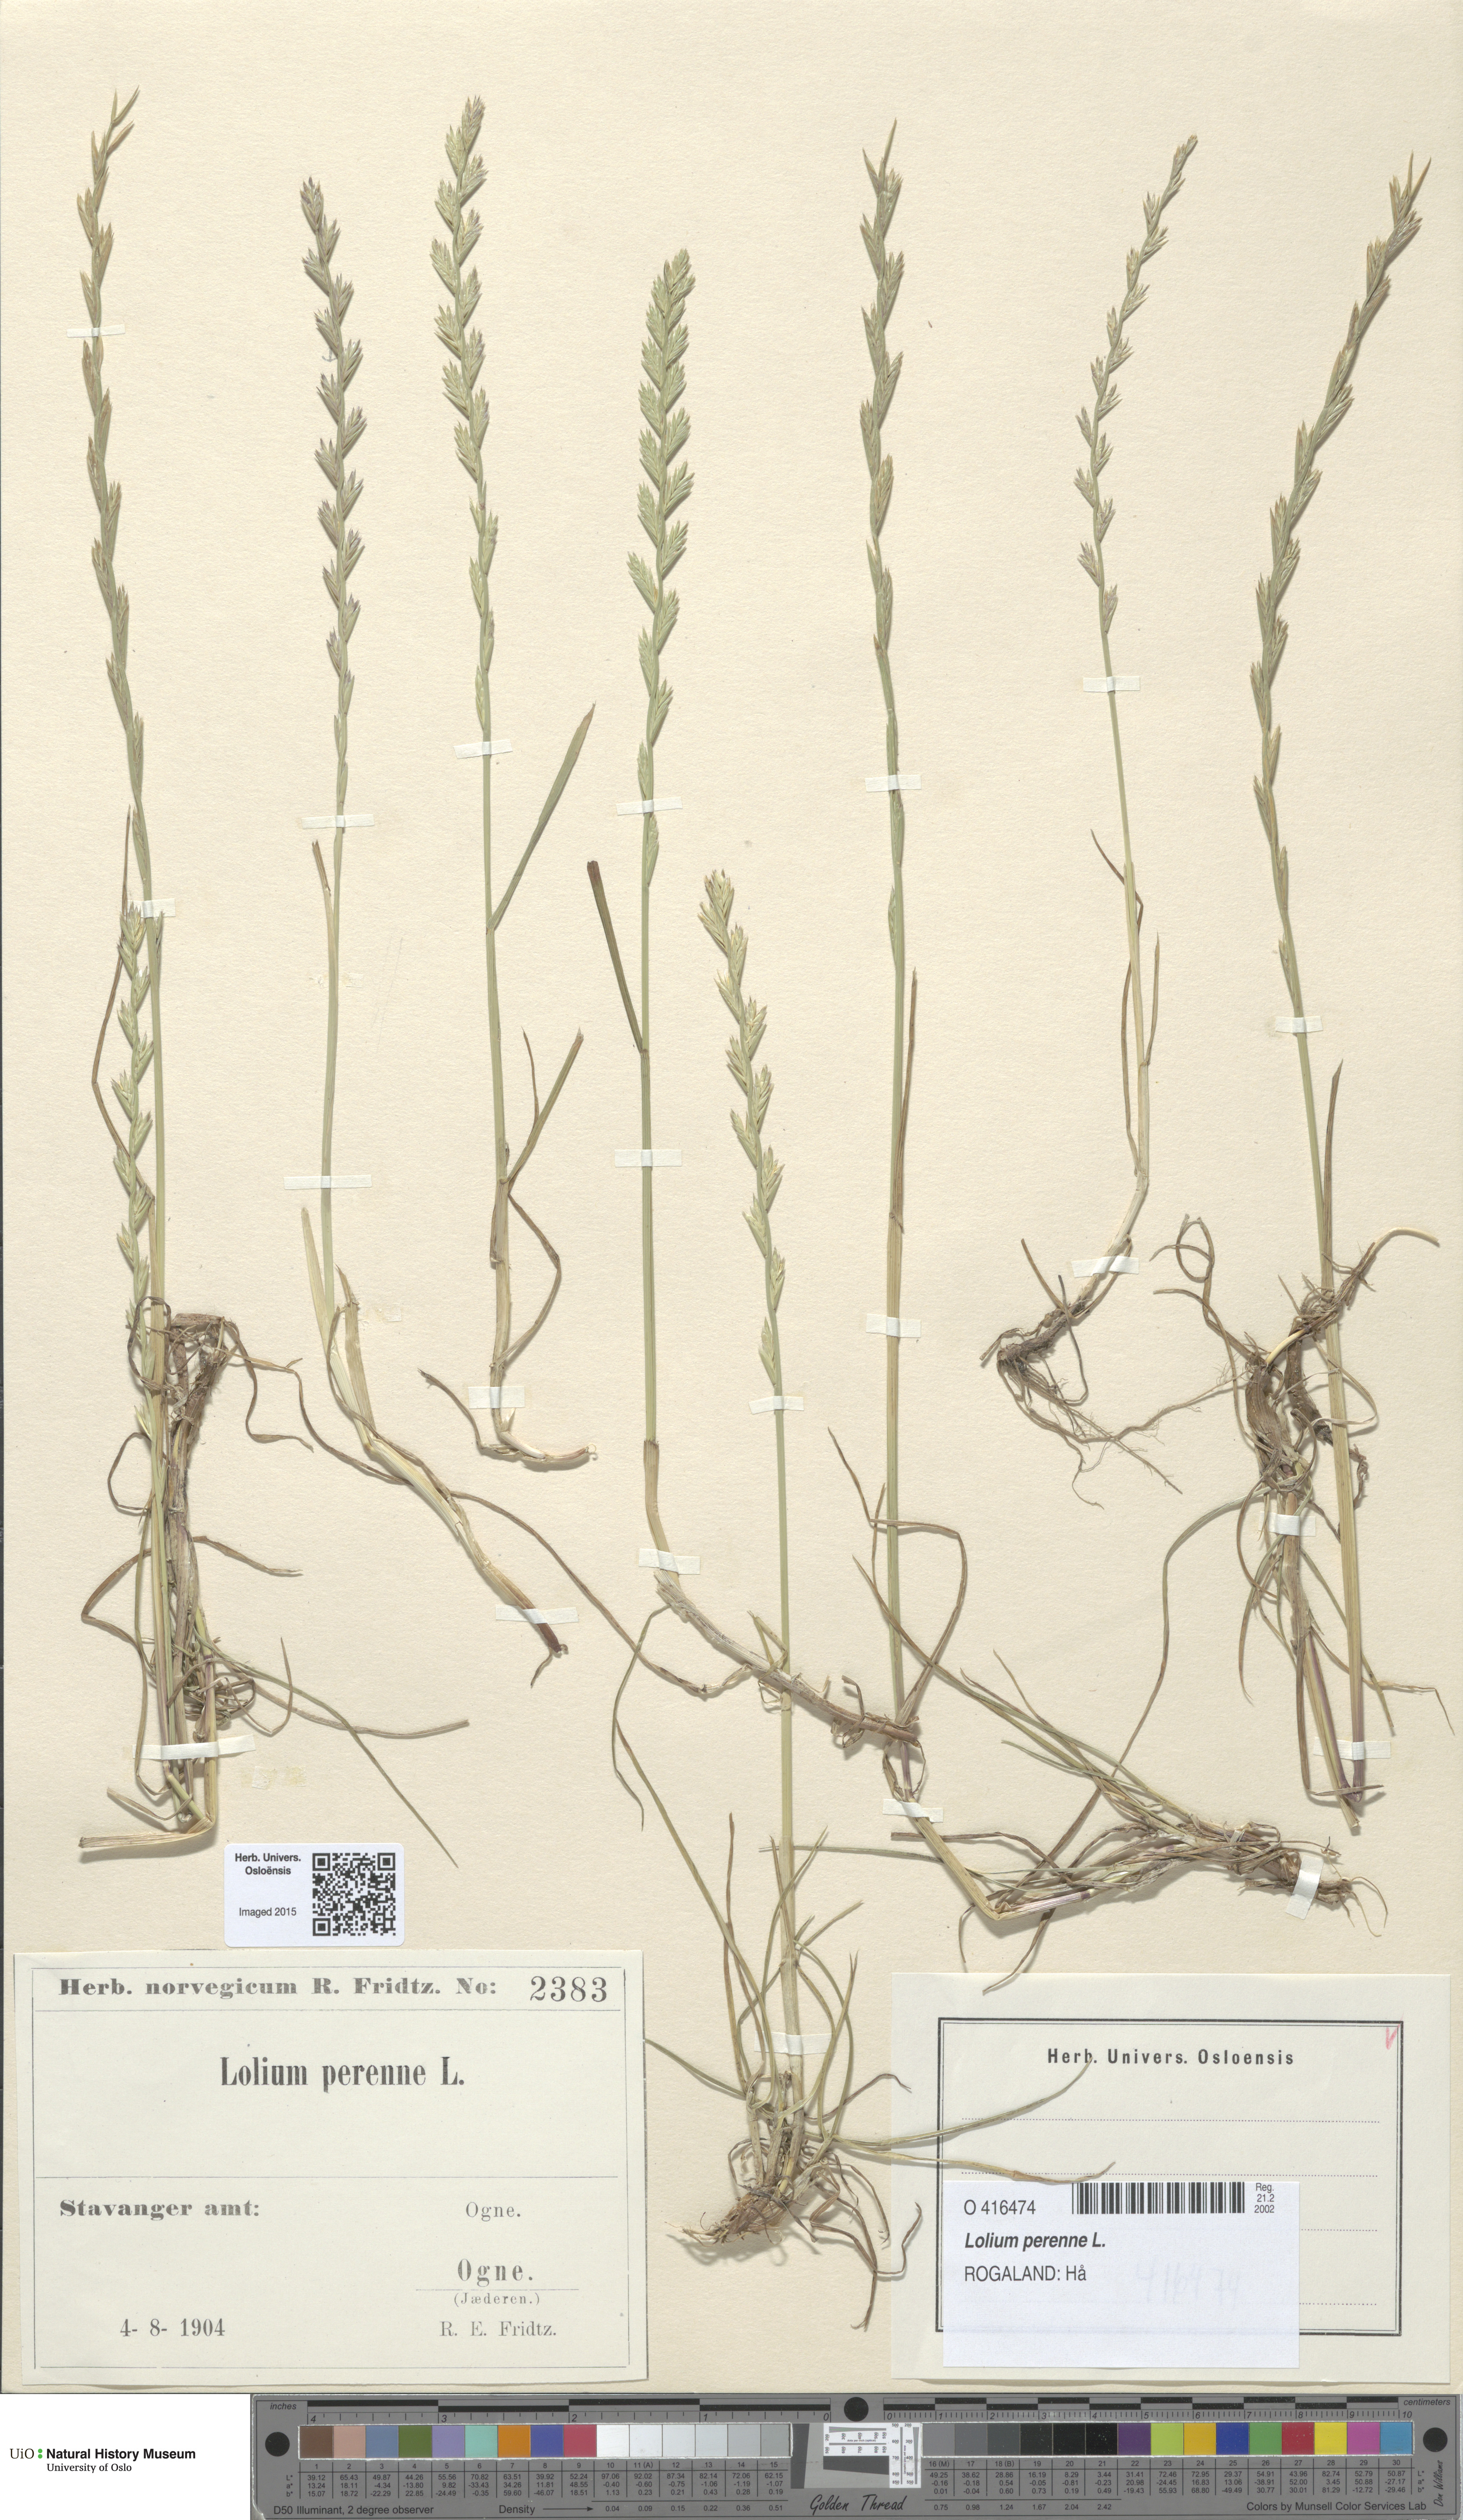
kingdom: Plantae
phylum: Tracheophyta
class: Liliopsida
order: Poales
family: Poaceae
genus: Lolium
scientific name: Lolium perenne
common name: Perennial ryegrass
